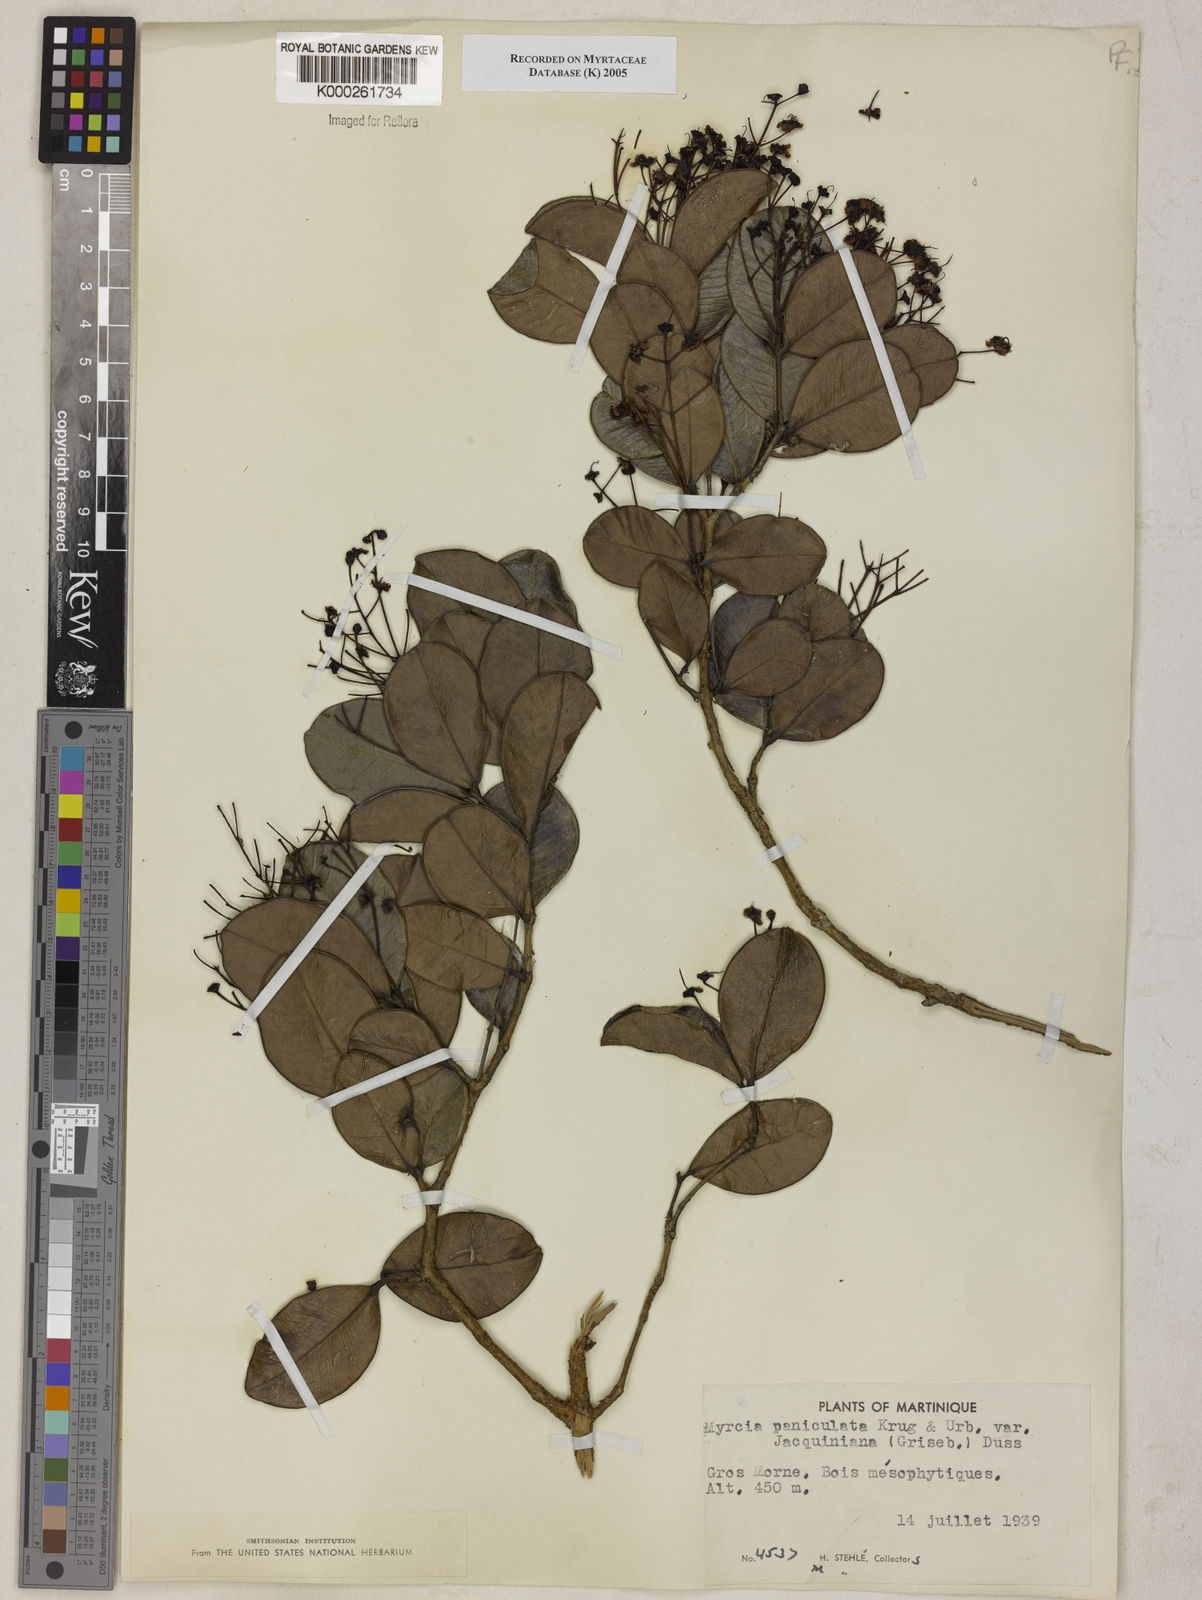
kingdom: Plantae
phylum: Tracheophyta
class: Magnoliopsida
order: Myrtales
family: Myrtaceae
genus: Myrcia
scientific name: Myrcia guianensis
